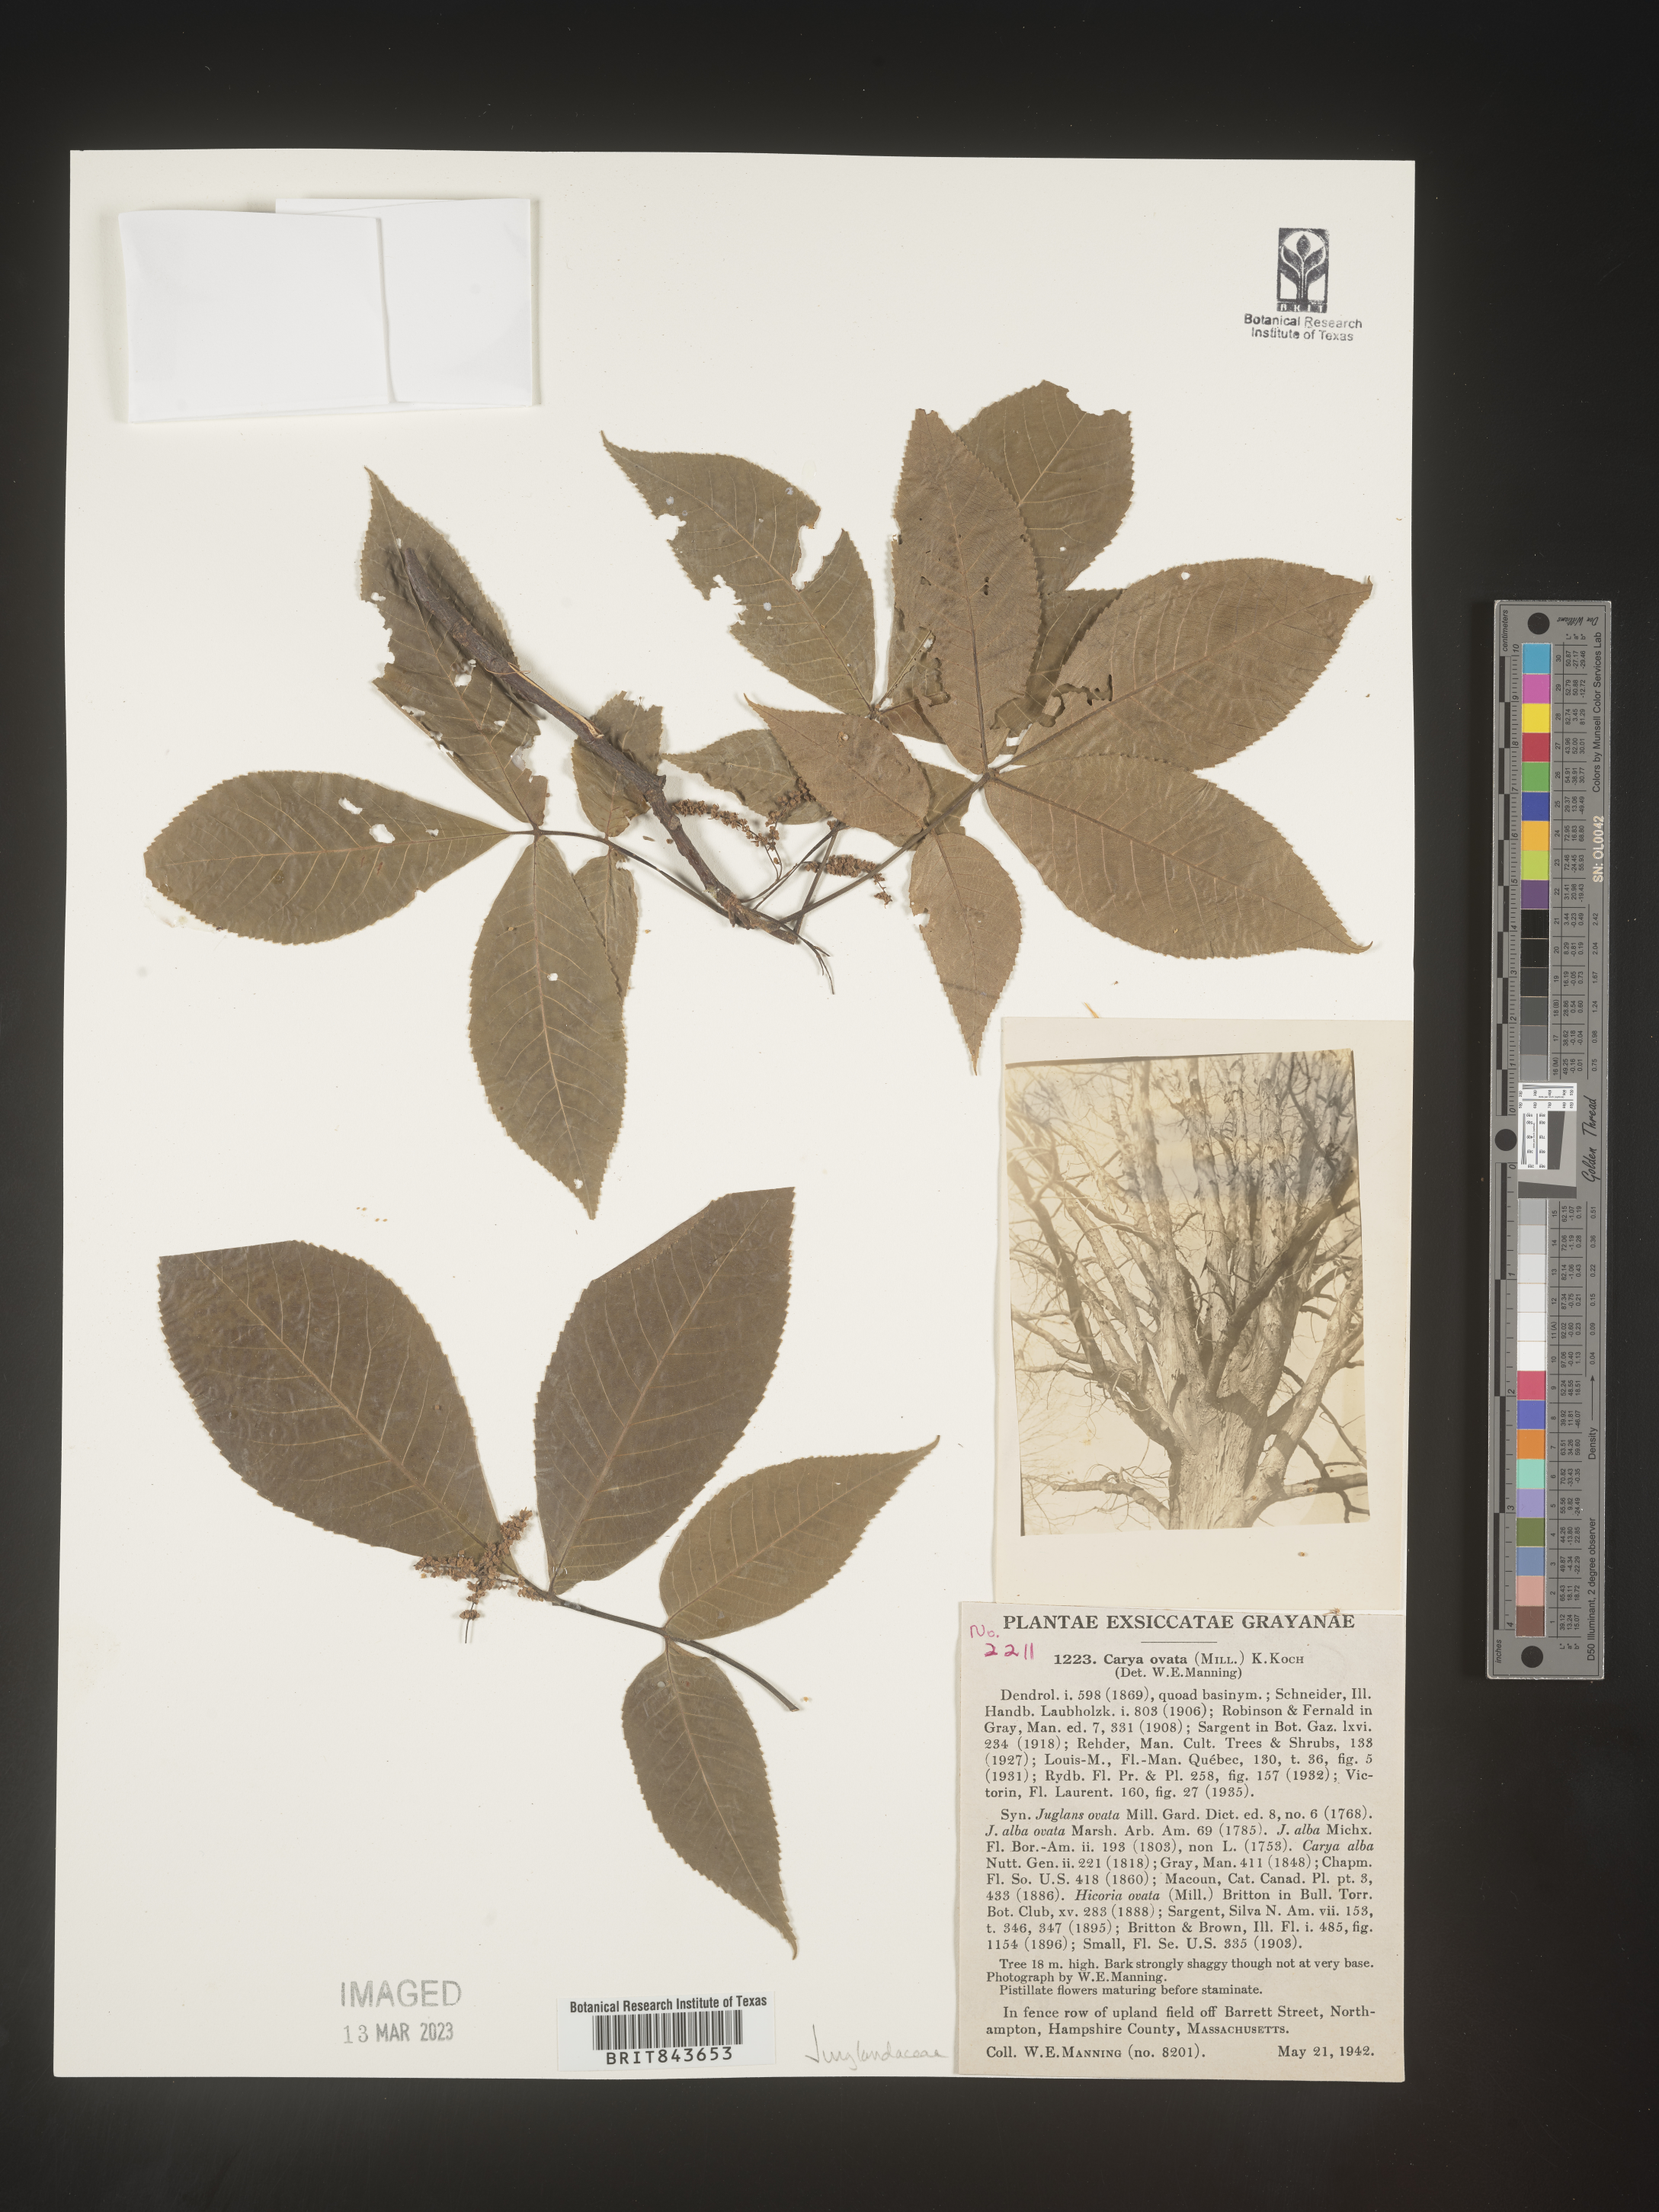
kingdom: Plantae
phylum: Tracheophyta
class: Magnoliopsida
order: Fagales
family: Juglandaceae
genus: Carya
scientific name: Carya ovata
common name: Shagbark hickory
